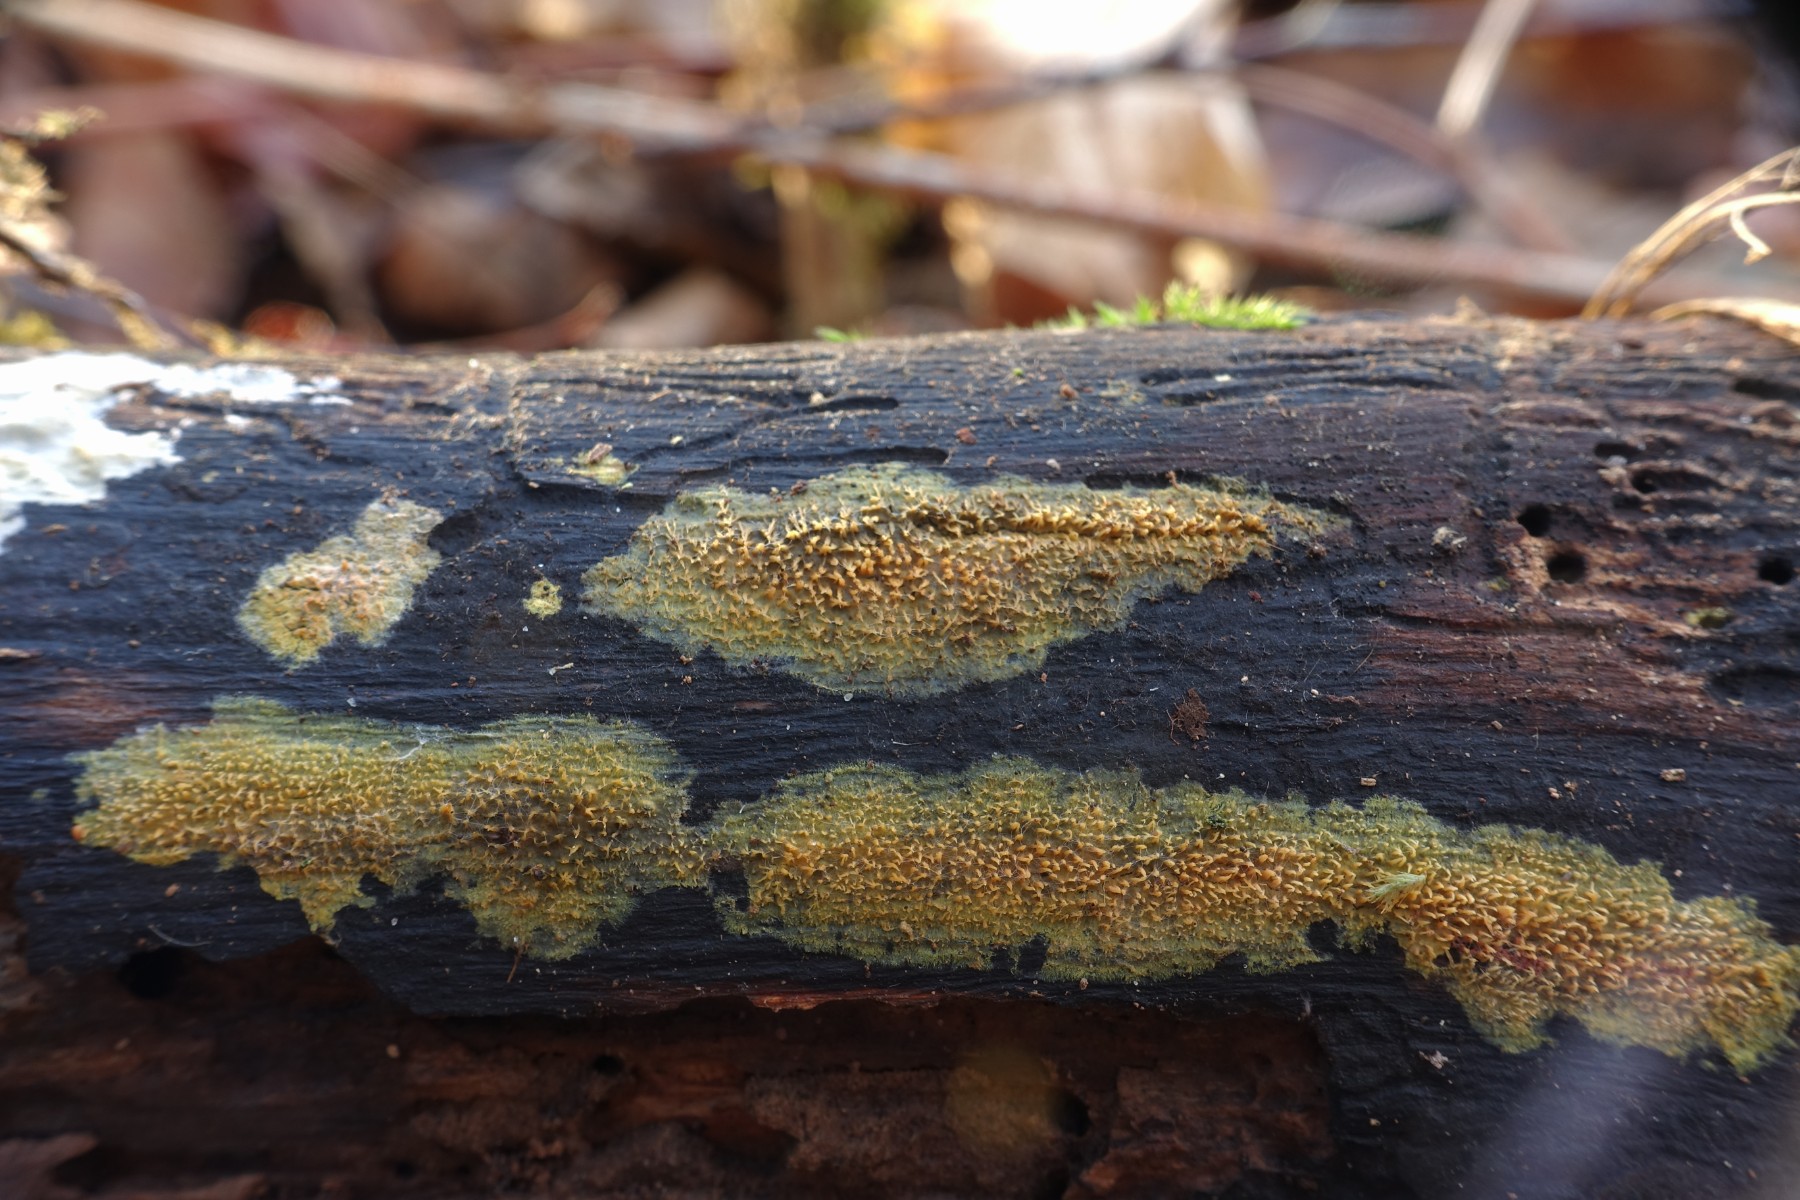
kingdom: Fungi
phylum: Basidiomycota
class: Agaricomycetes
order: Polyporales
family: Meruliaceae
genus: Mycoacia
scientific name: Mycoacia uda
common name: citrongul vokspig
